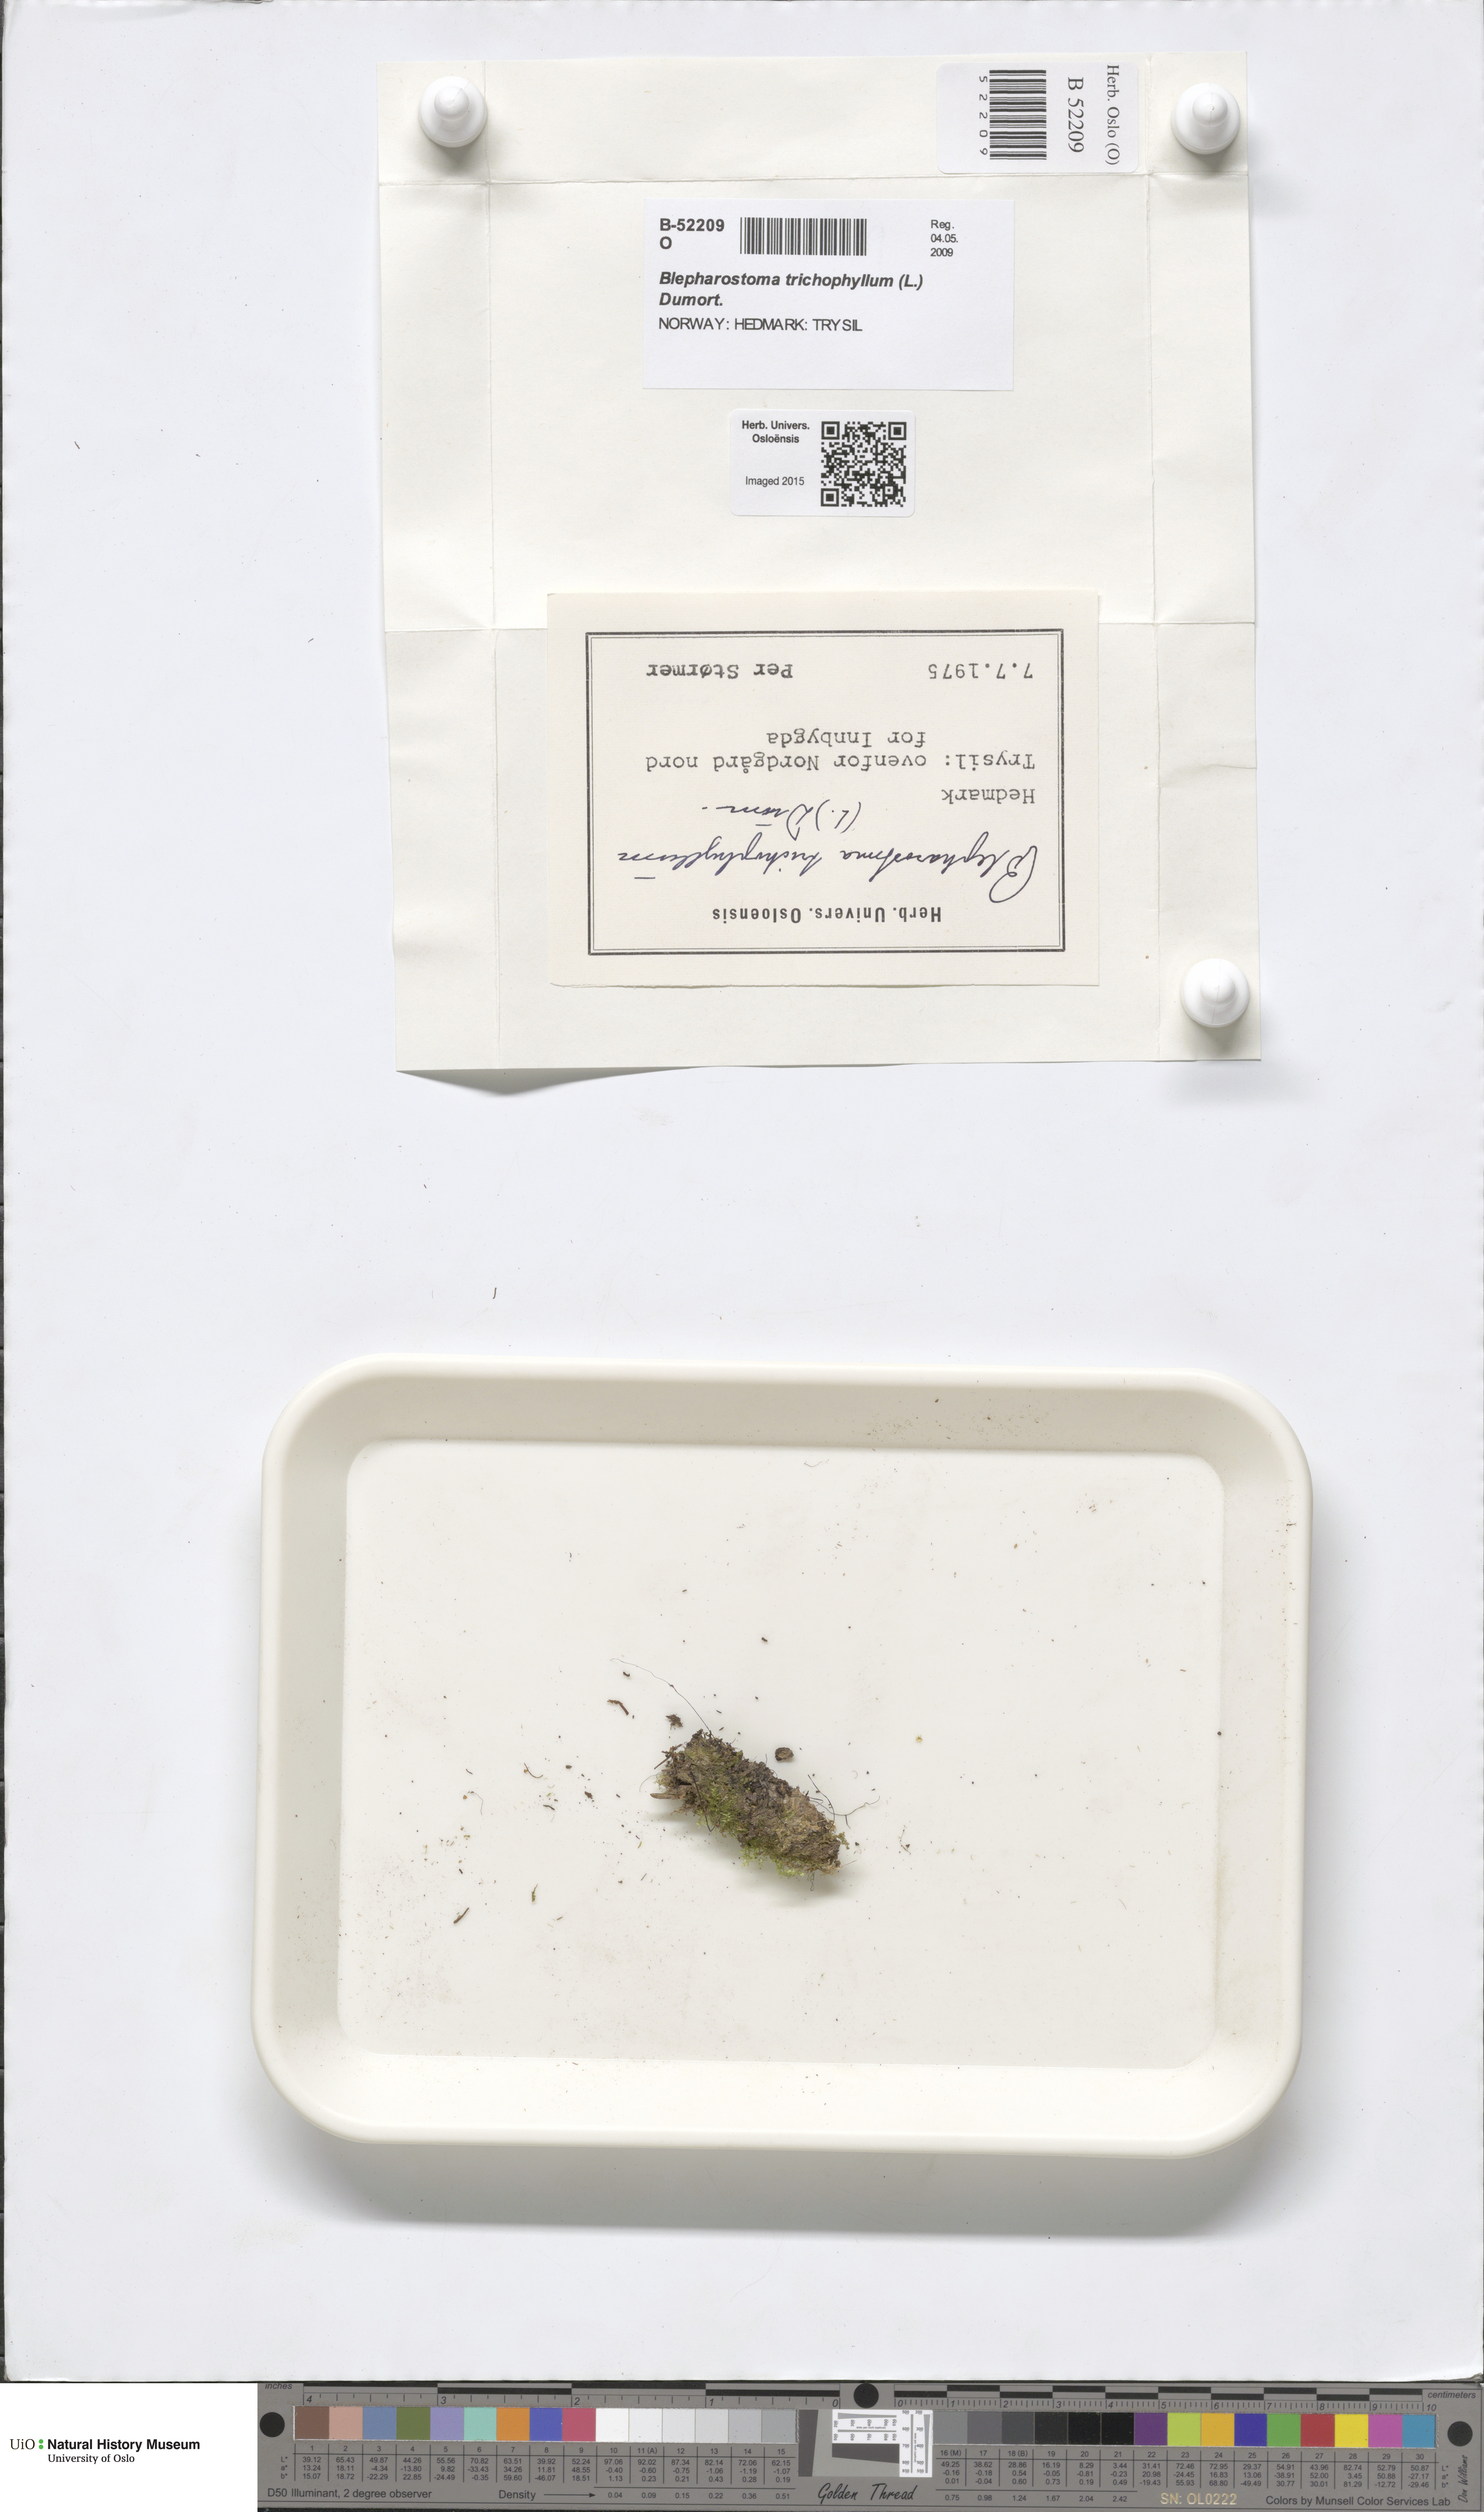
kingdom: Plantae
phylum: Marchantiophyta
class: Jungermanniopsida
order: Jungermanniales
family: Blepharostomataceae
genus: Blepharostoma
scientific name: Blepharostoma trichophyllum
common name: Hairy threadwort
